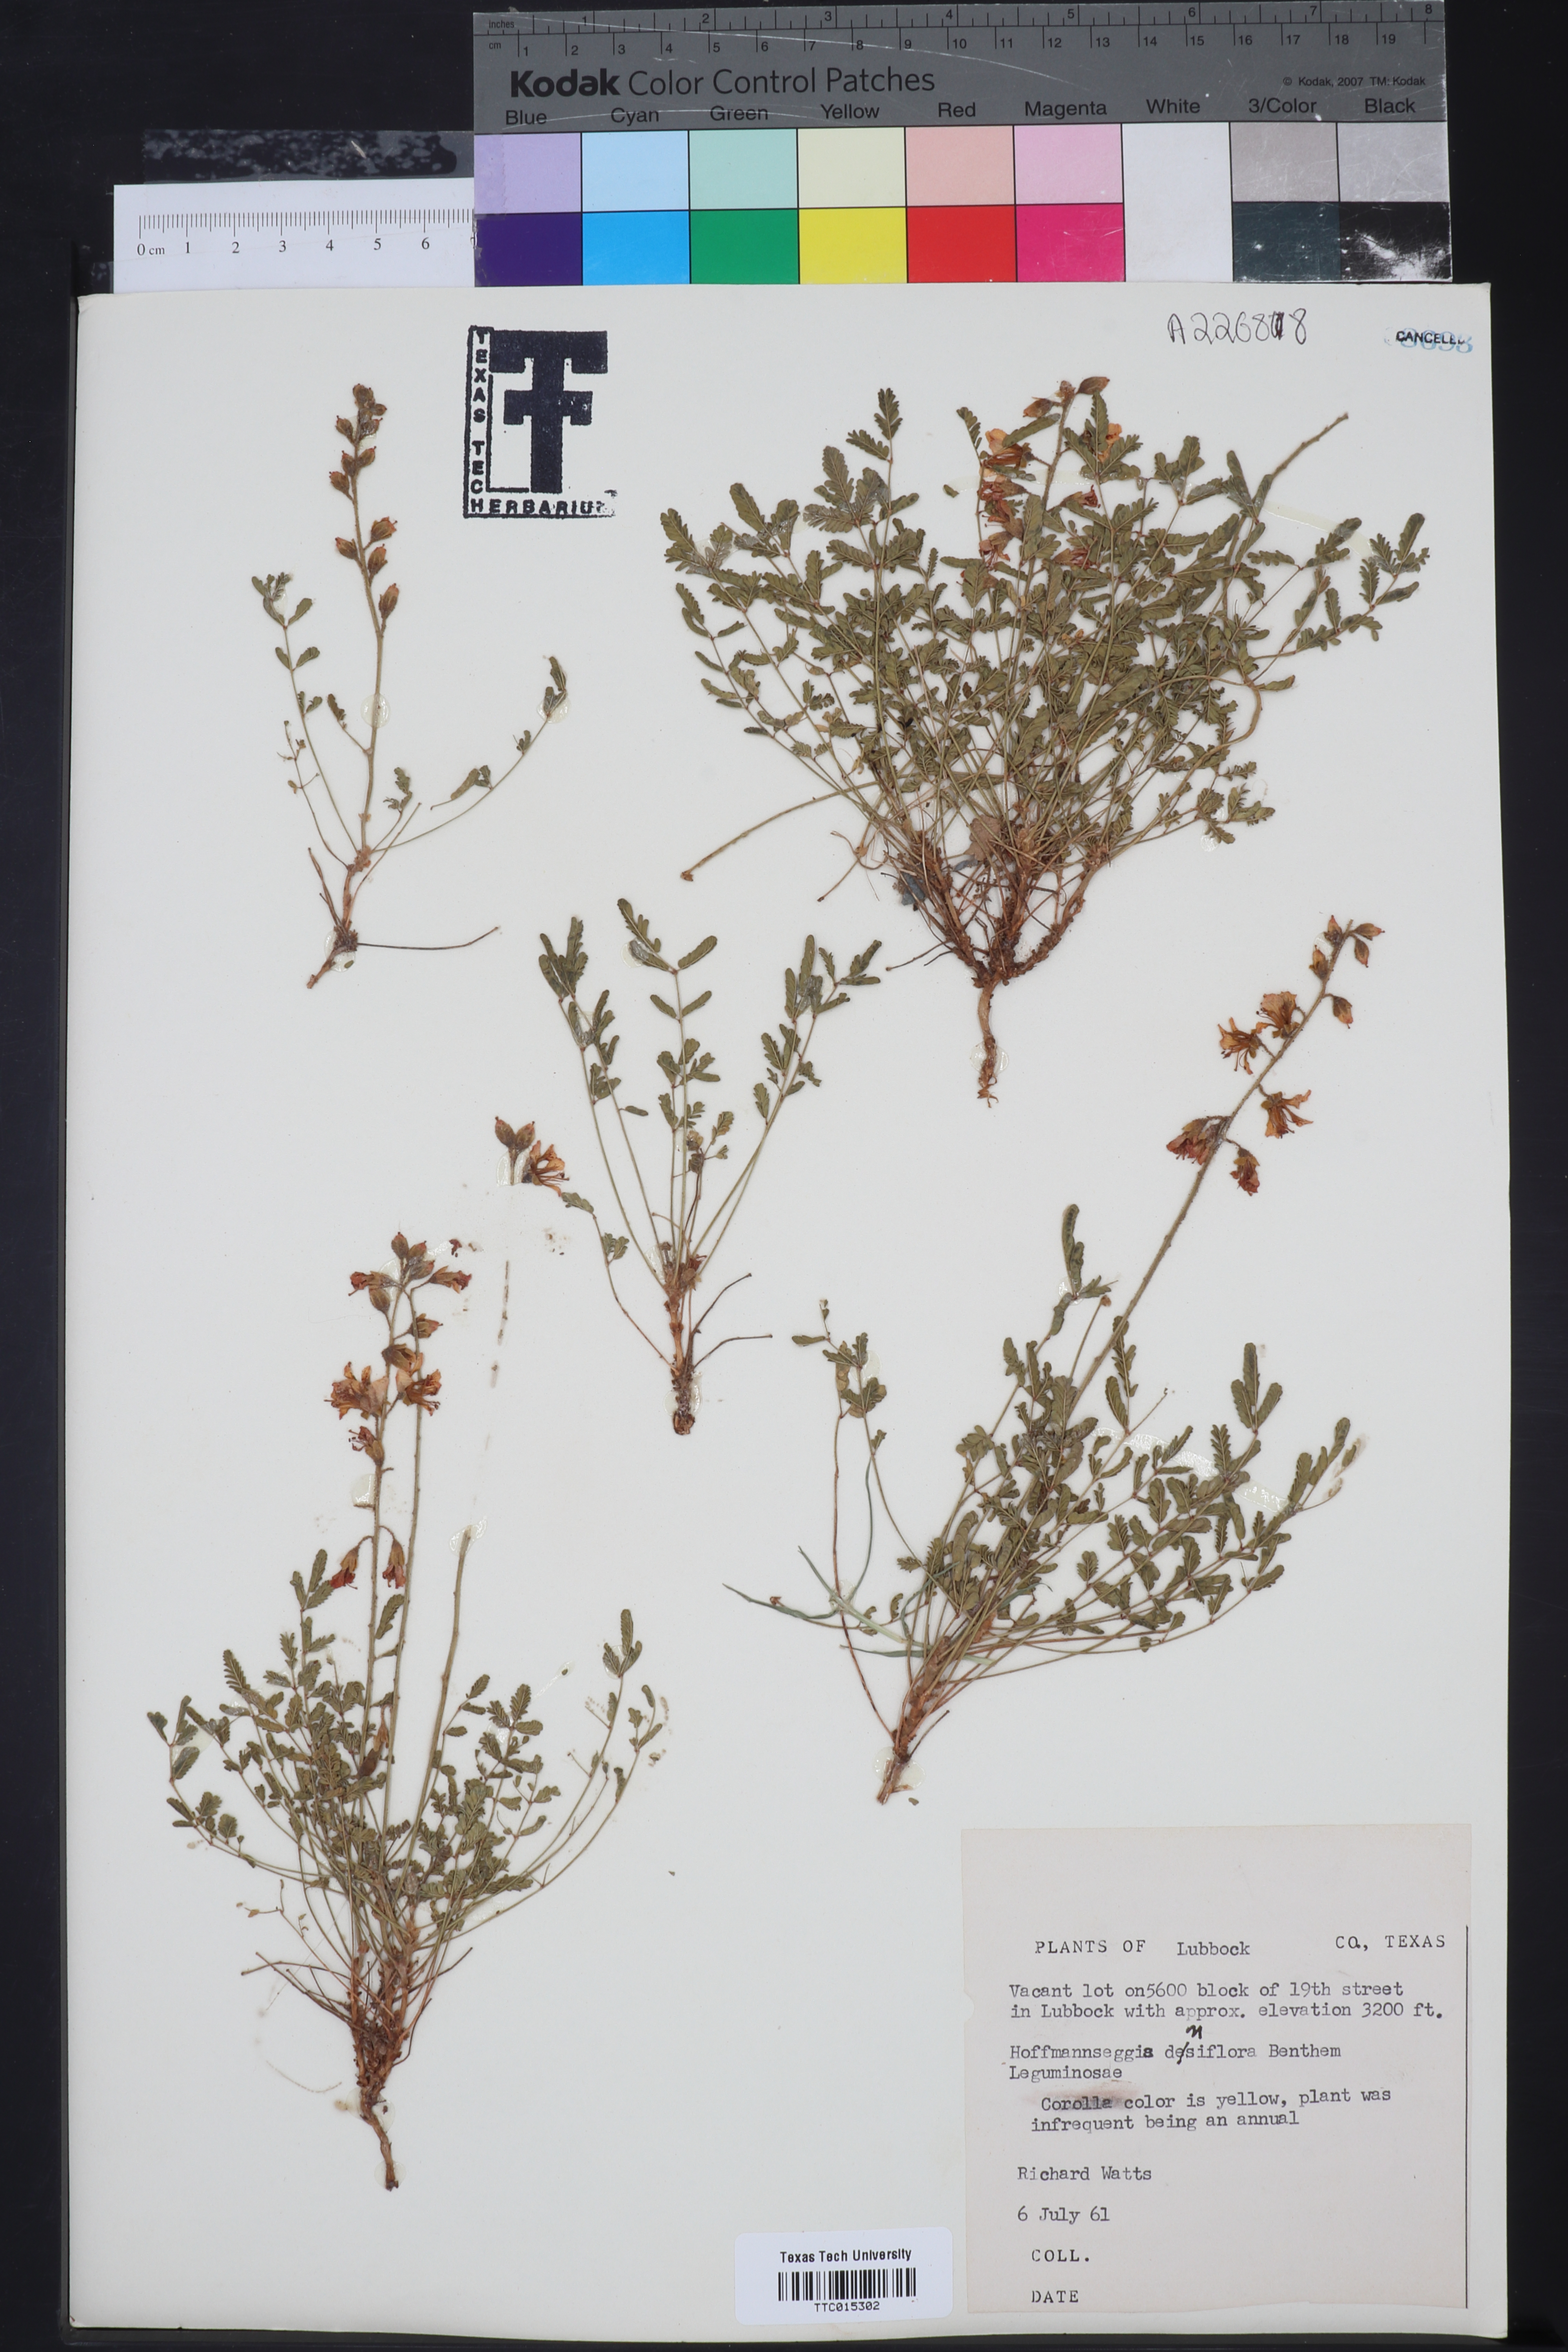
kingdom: Plantae
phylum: Tracheophyta
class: Magnoliopsida
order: Fabales
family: Fabaceae
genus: Hoffmannseggia
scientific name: Hoffmannseggia glauca
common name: Pignut
